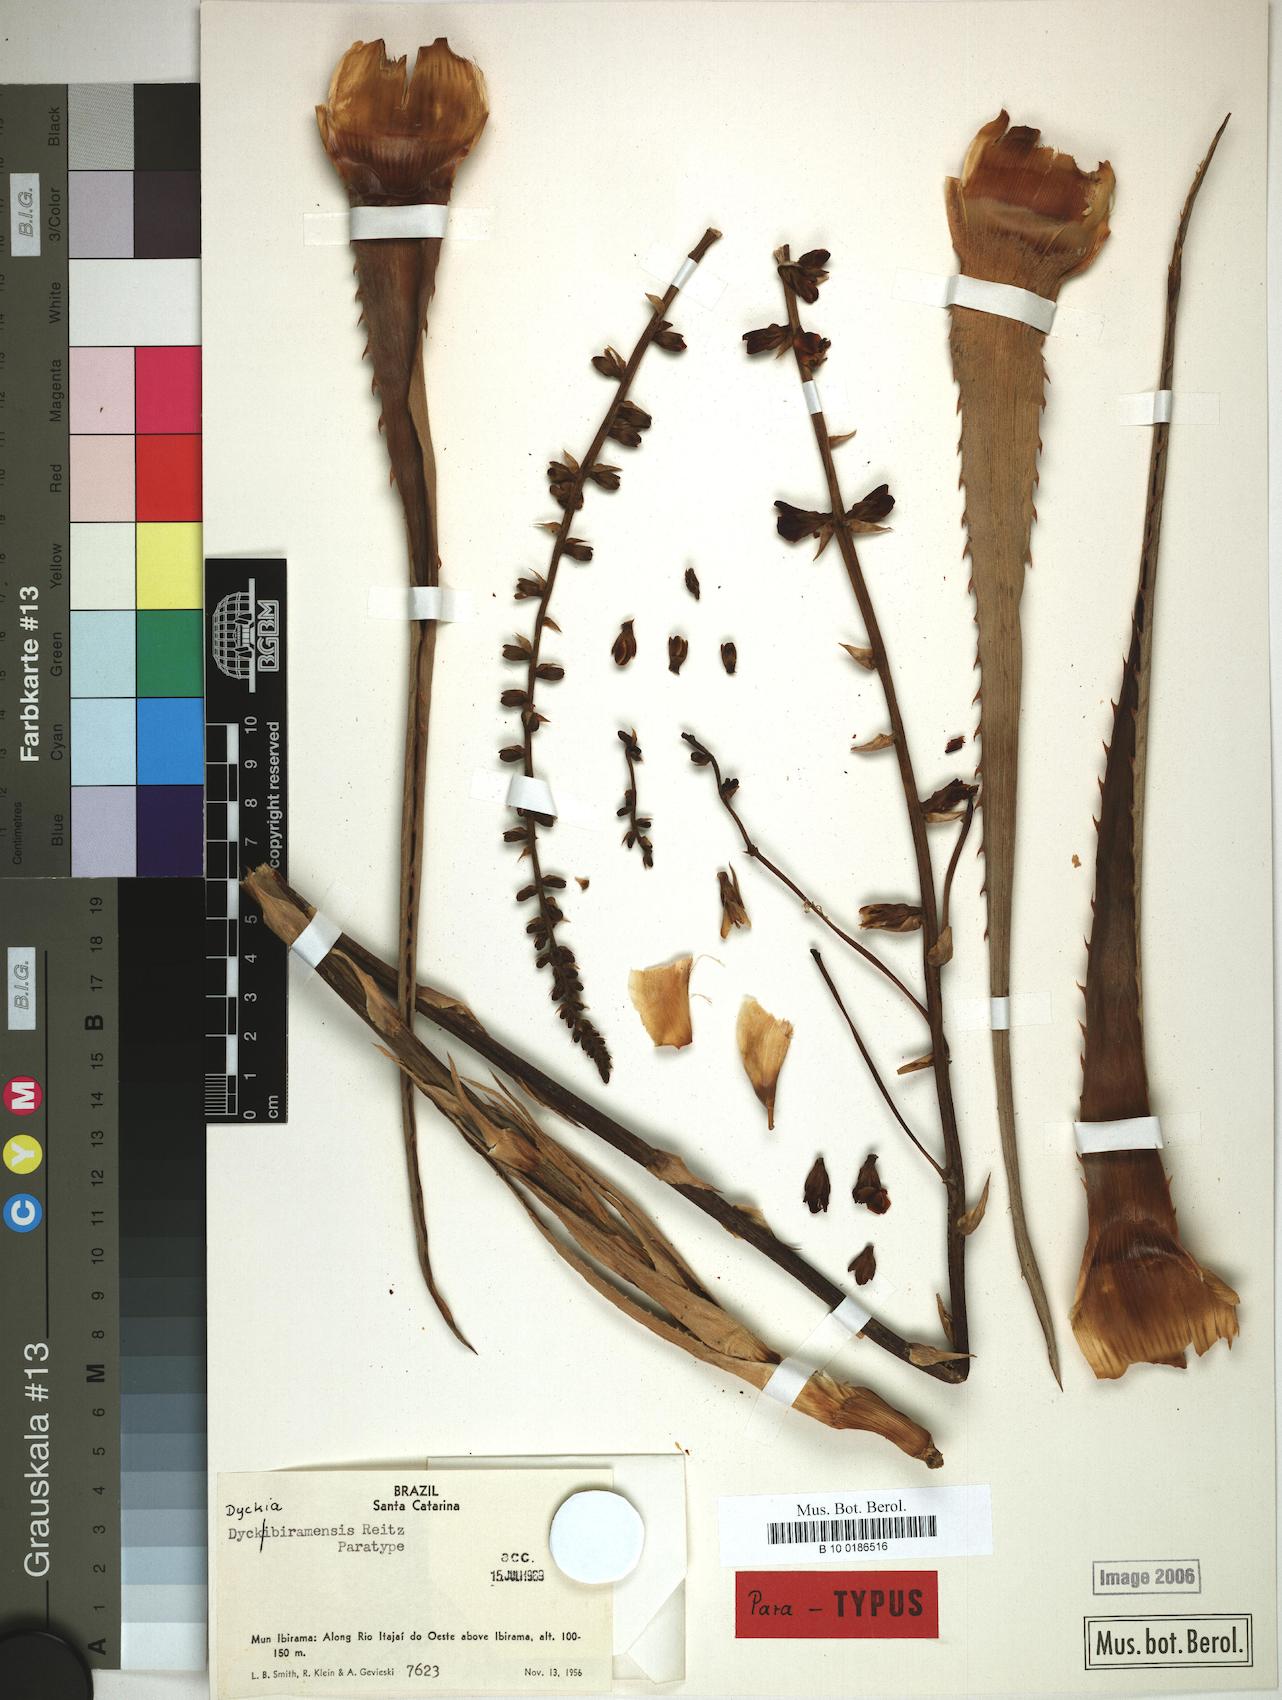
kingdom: Plantae
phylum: Tracheophyta
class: Liliopsida
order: Poales
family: Bromeliaceae
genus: Dyckia
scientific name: Dyckia ibiramensis
